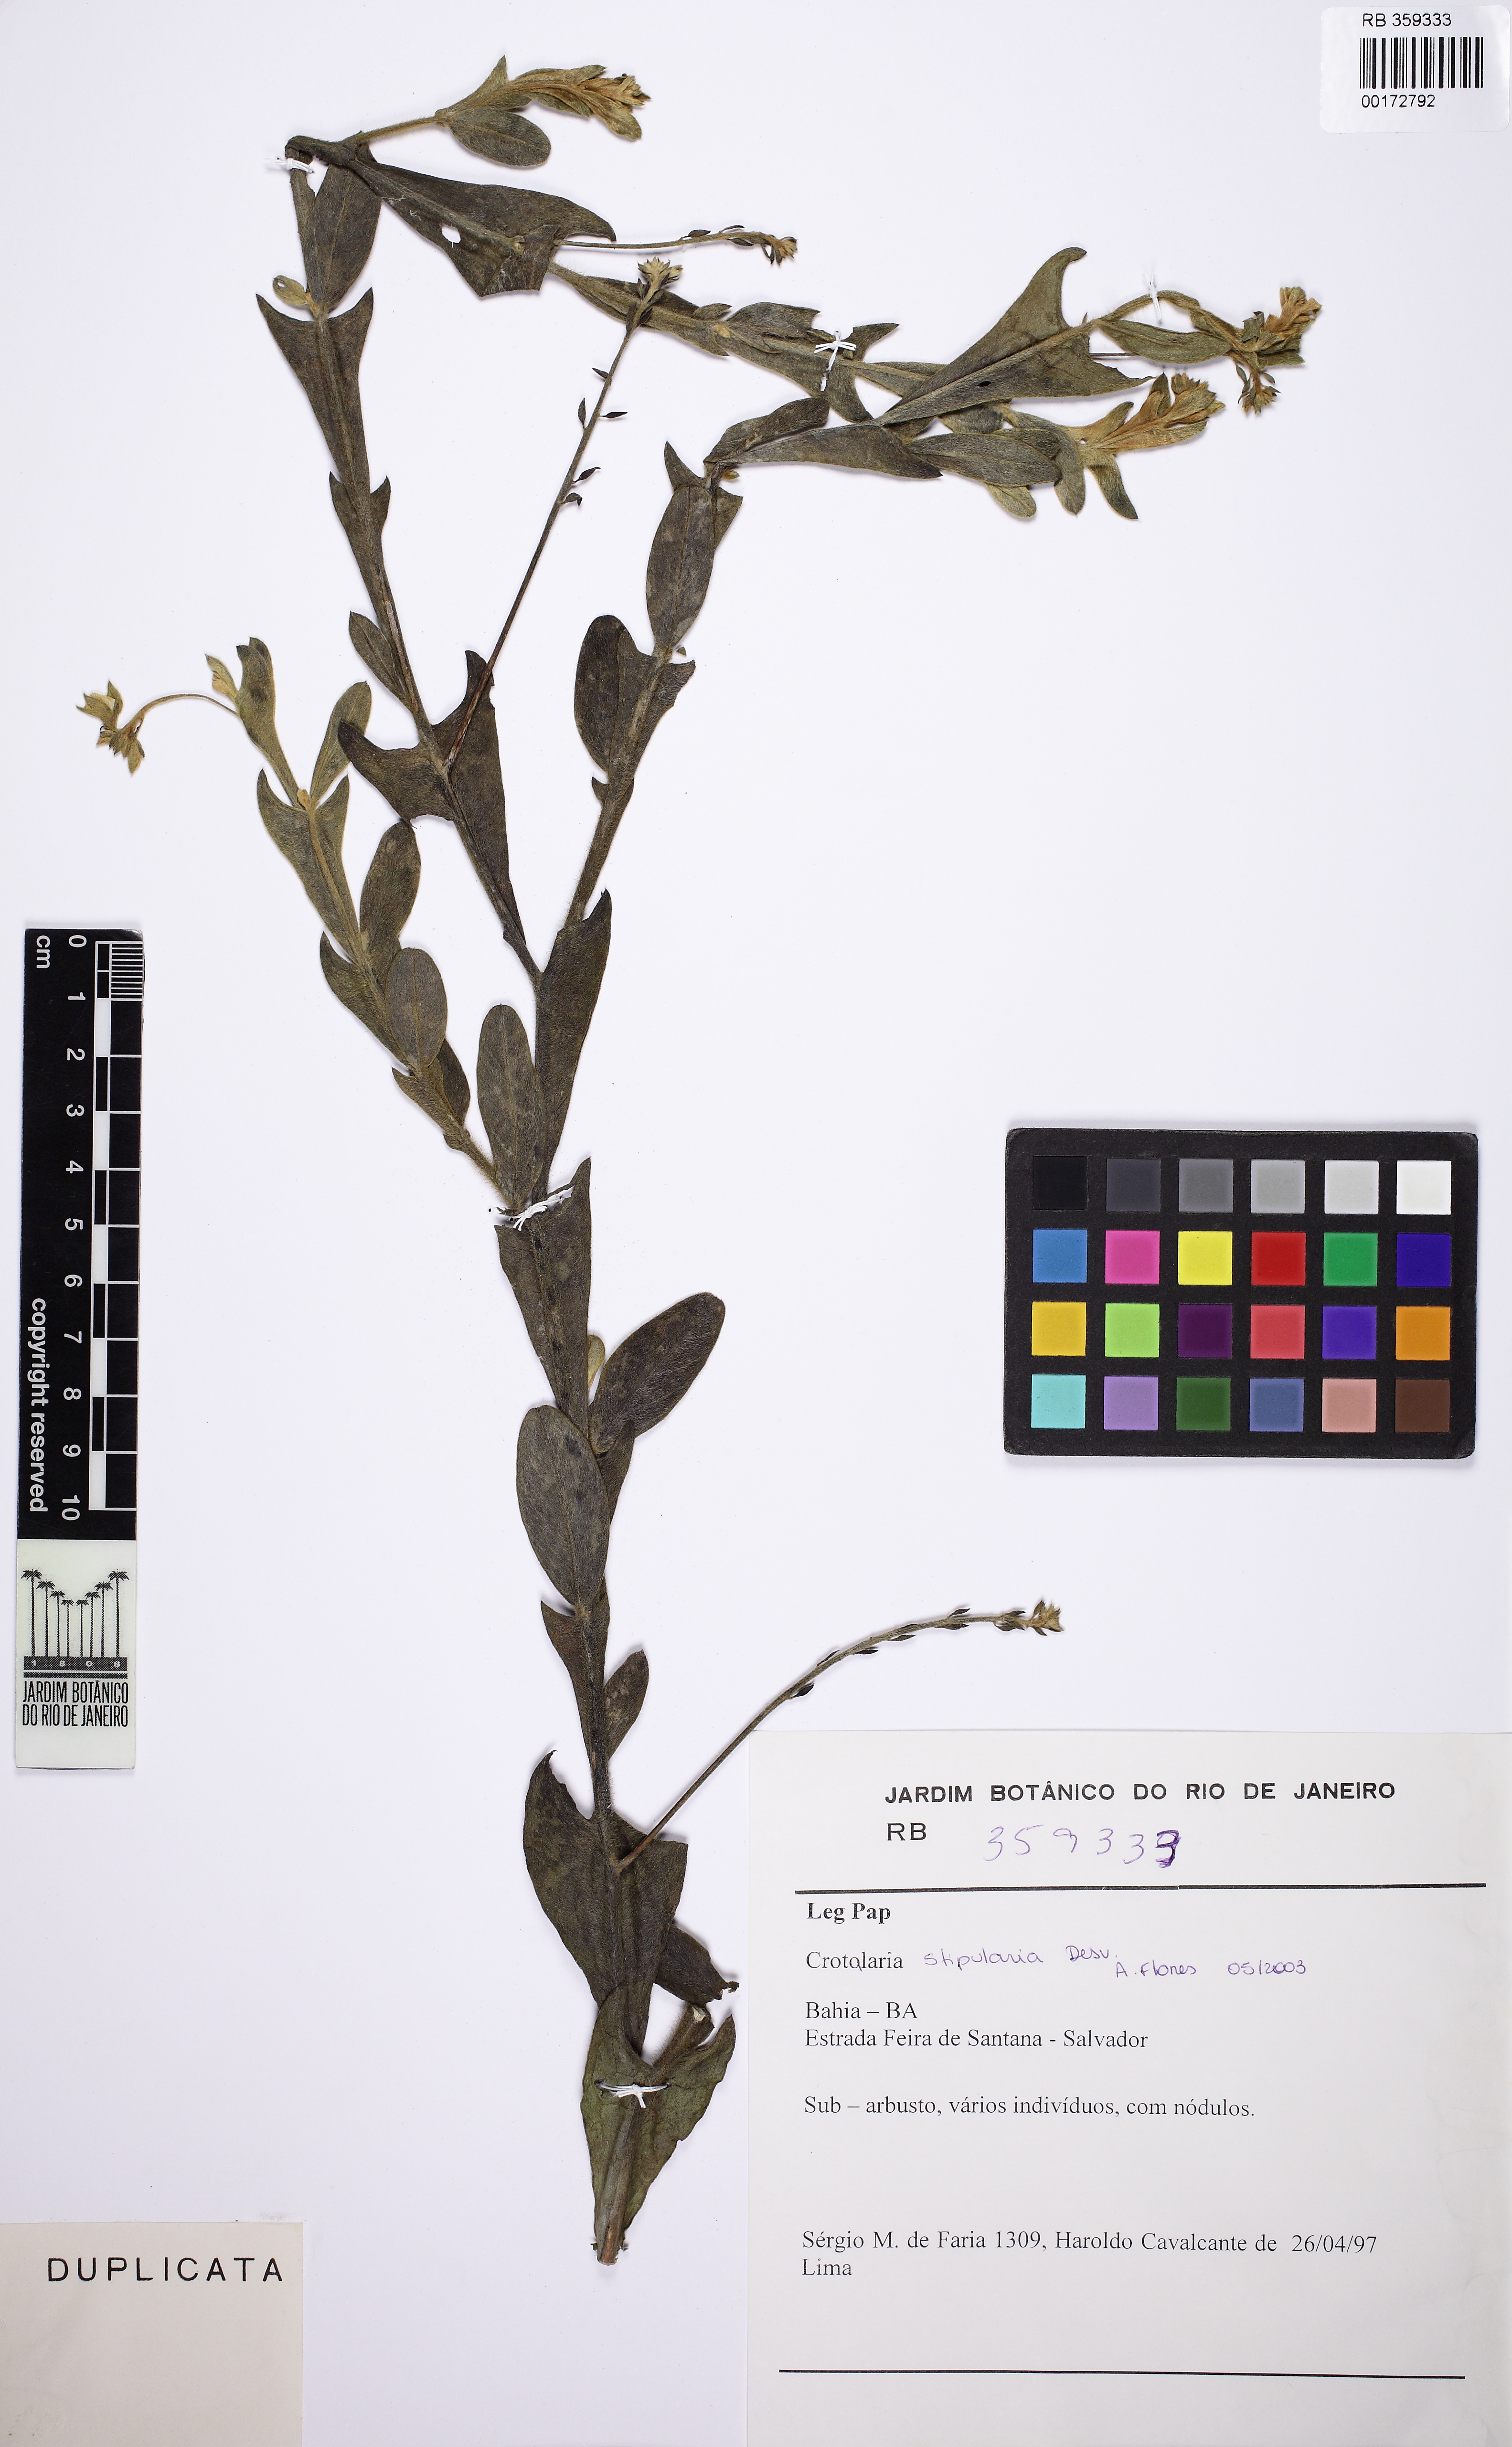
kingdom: Plantae
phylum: Tracheophyta
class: Magnoliopsida
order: Fabales
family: Fabaceae
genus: Crotalaria
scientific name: Crotalaria stipularia
